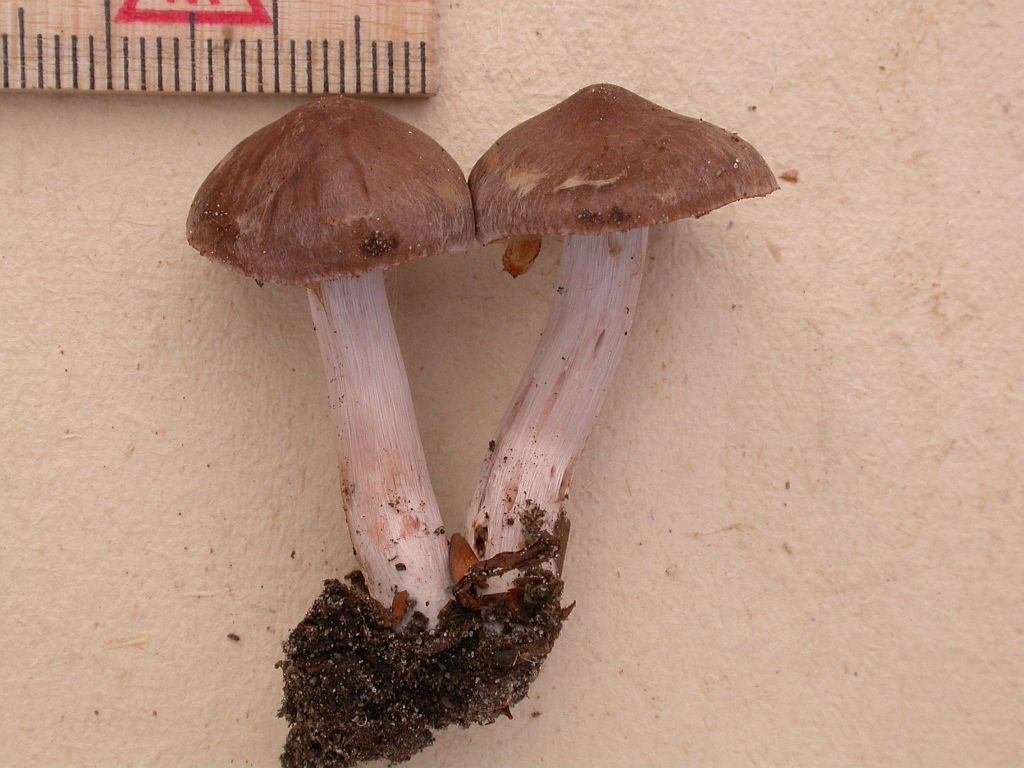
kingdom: Fungi
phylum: Basidiomycota
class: Agaricomycetes
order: Agaricales
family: Cortinariaceae
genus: Cortinarius
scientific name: Cortinarius inconspicuus
